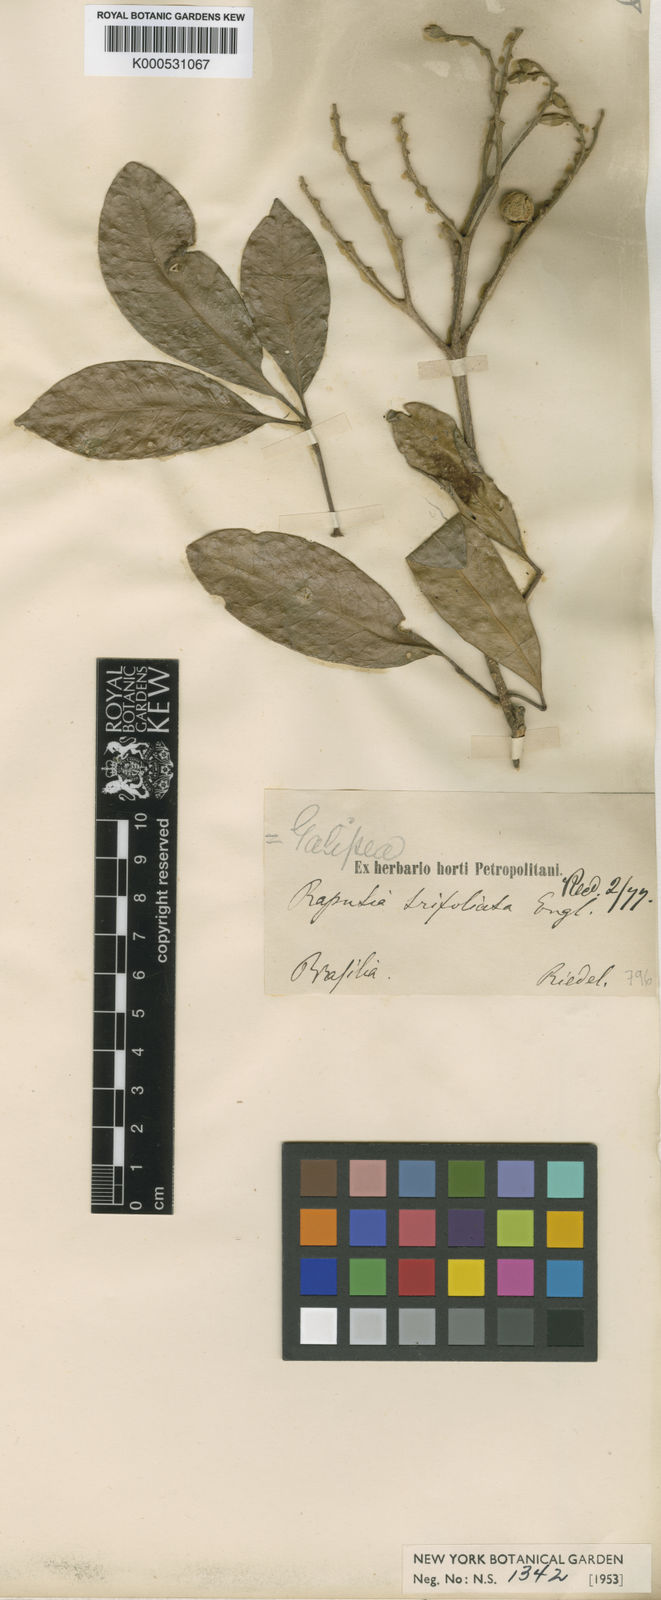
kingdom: Plantae
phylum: Tracheophyta
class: Magnoliopsida
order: Sapindales
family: Rutaceae
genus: Neoraputia
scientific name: Neoraputia
